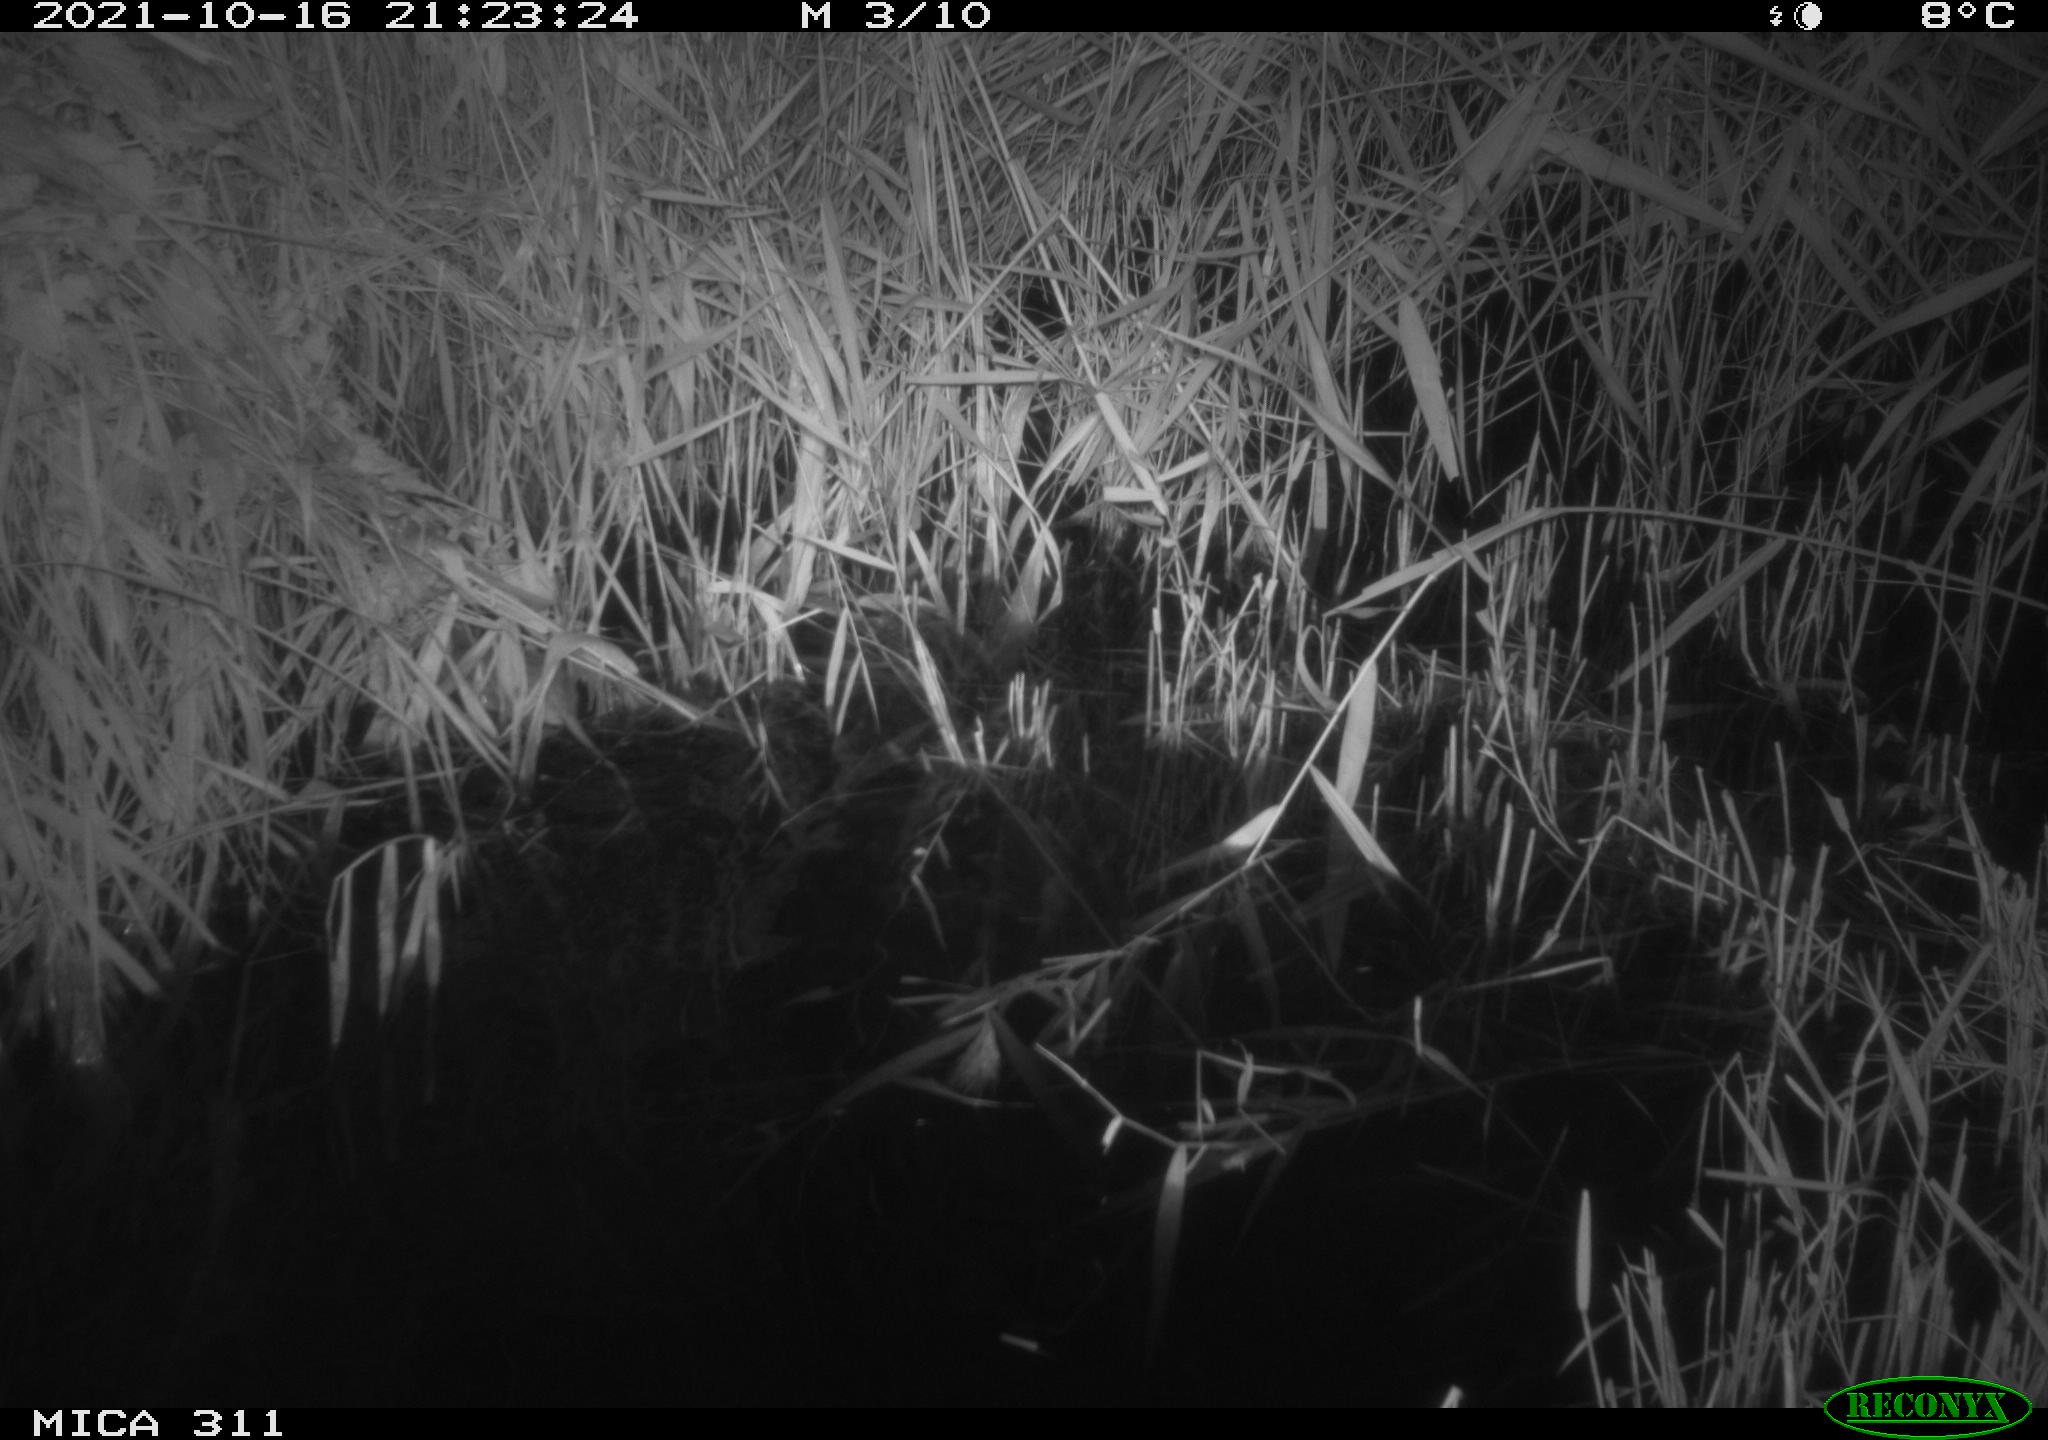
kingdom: Animalia
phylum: Chordata
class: Mammalia
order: Rodentia
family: Muridae
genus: Rattus
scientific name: Rattus norvegicus
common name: Brown rat
